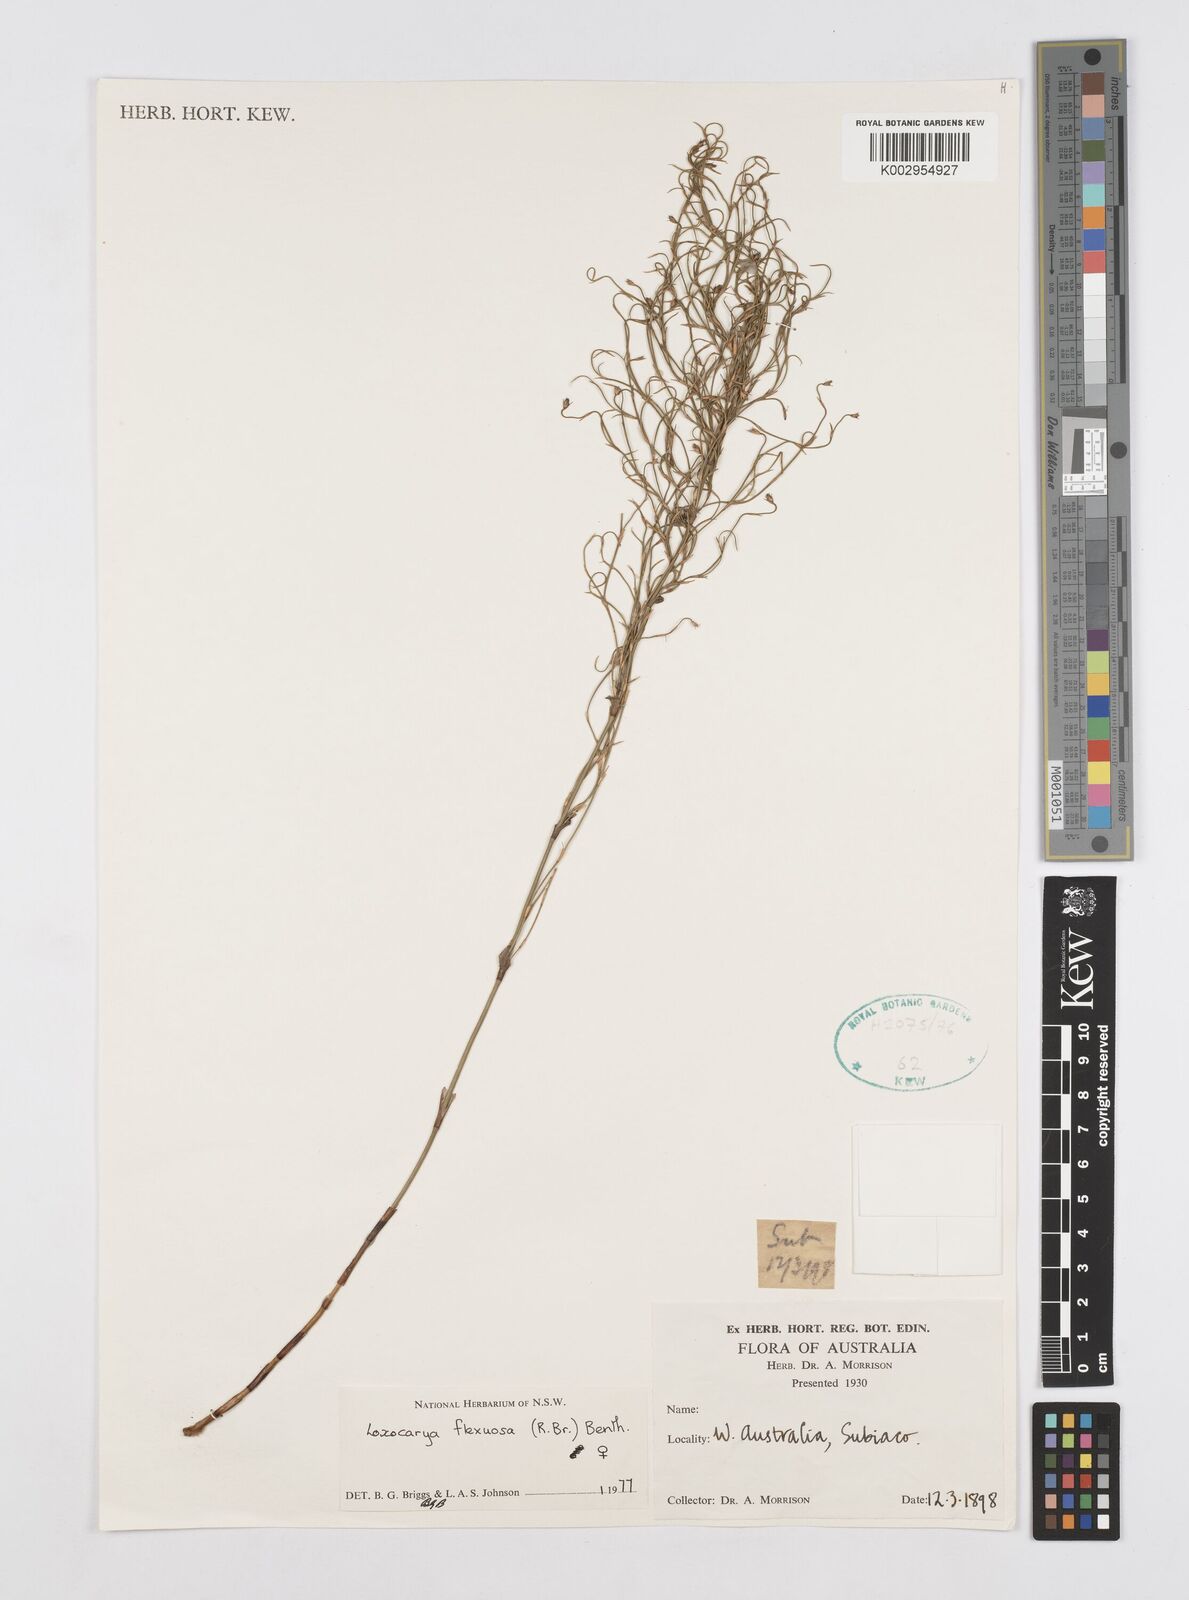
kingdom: Plantae
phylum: Tracheophyta
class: Liliopsida
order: Poales
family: Restionaceae
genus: Desmocladus
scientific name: Desmocladus flexuosus
